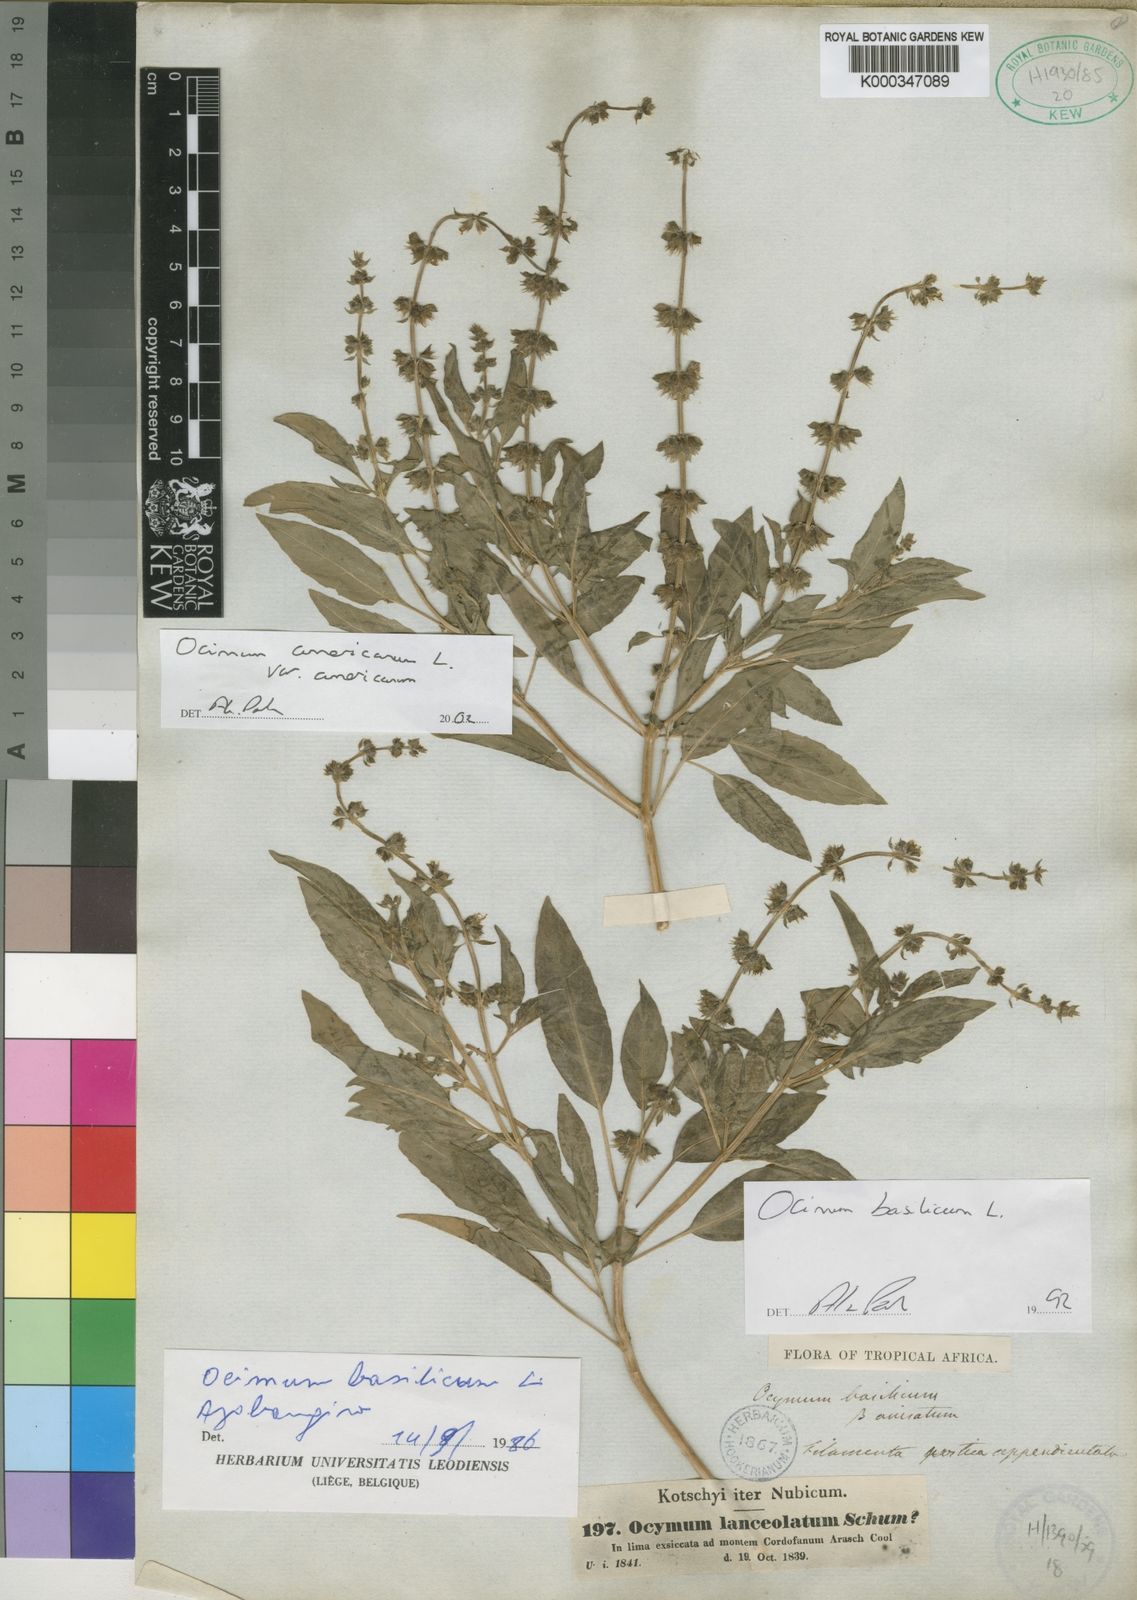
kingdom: Plantae
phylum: Tracheophyta
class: Magnoliopsida
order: Lamiales
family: Lamiaceae
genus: Ocimum
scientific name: Ocimum americanum
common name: American basil
